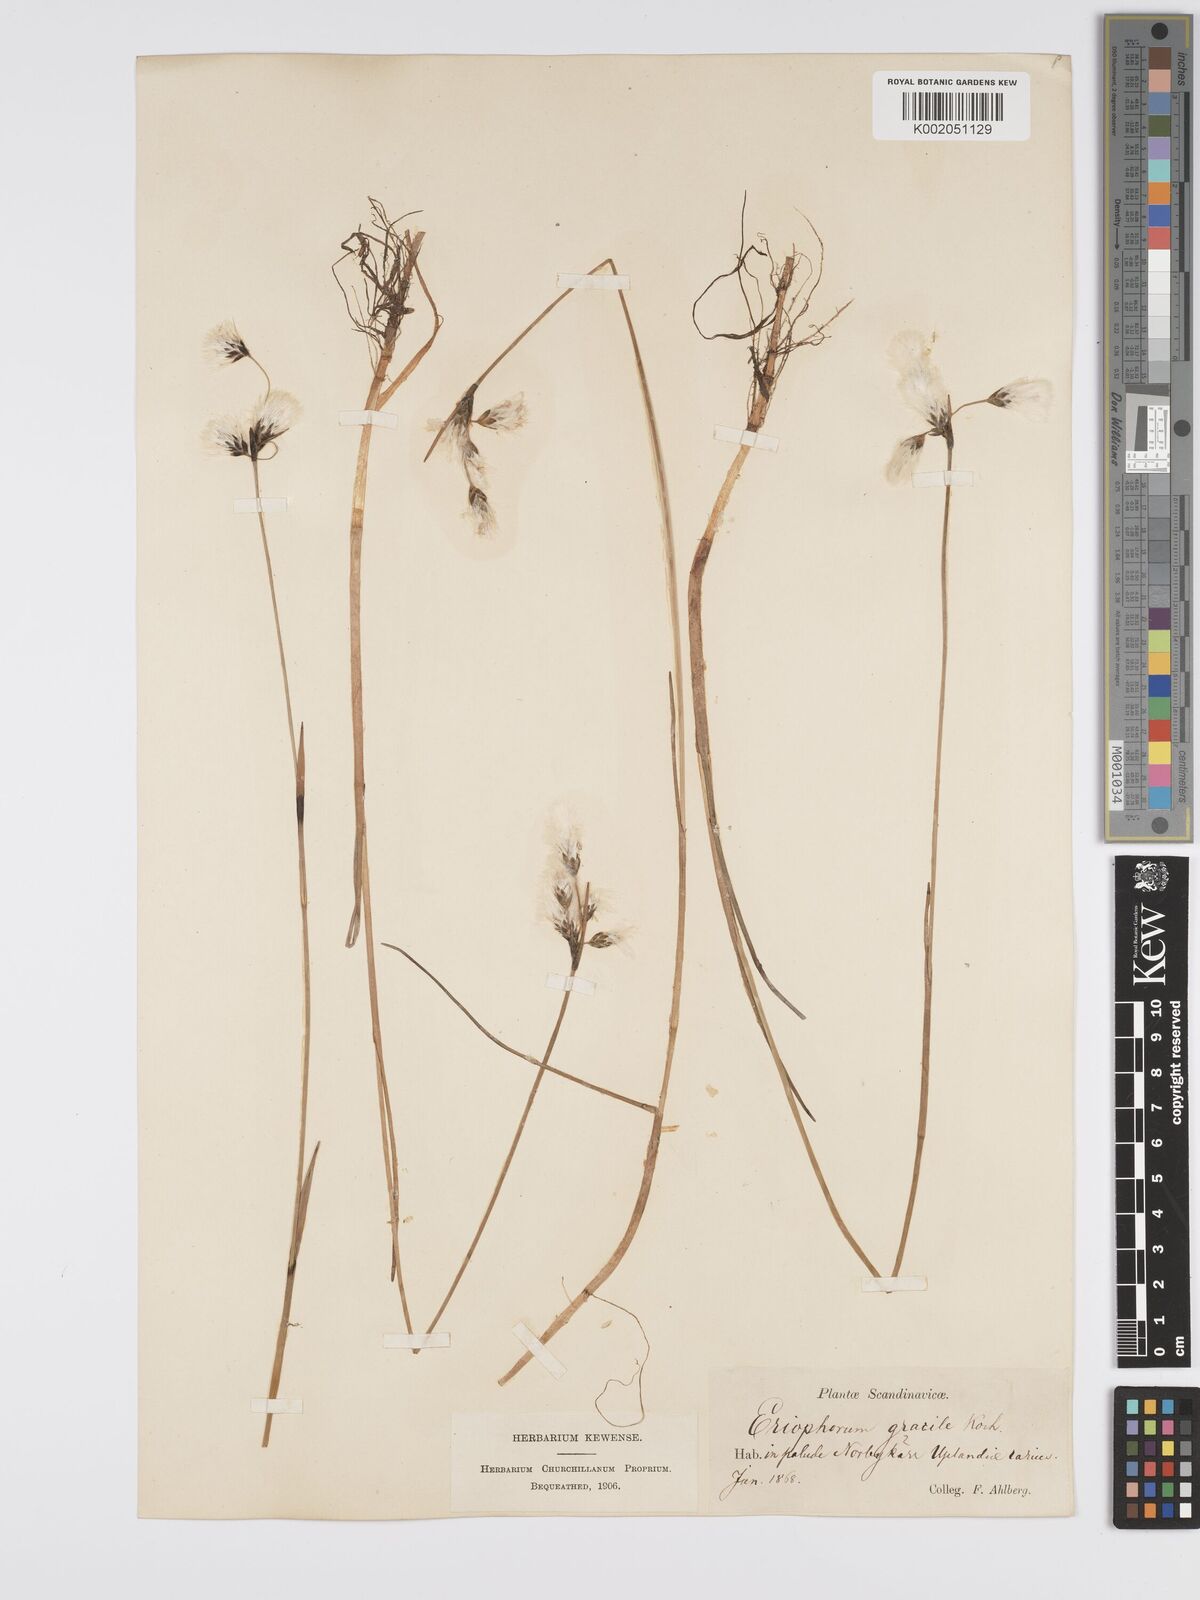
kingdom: Plantae
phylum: Tracheophyta
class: Liliopsida
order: Poales
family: Cyperaceae
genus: Eriophorum
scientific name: Eriophorum gracile
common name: Slender cottongrass
